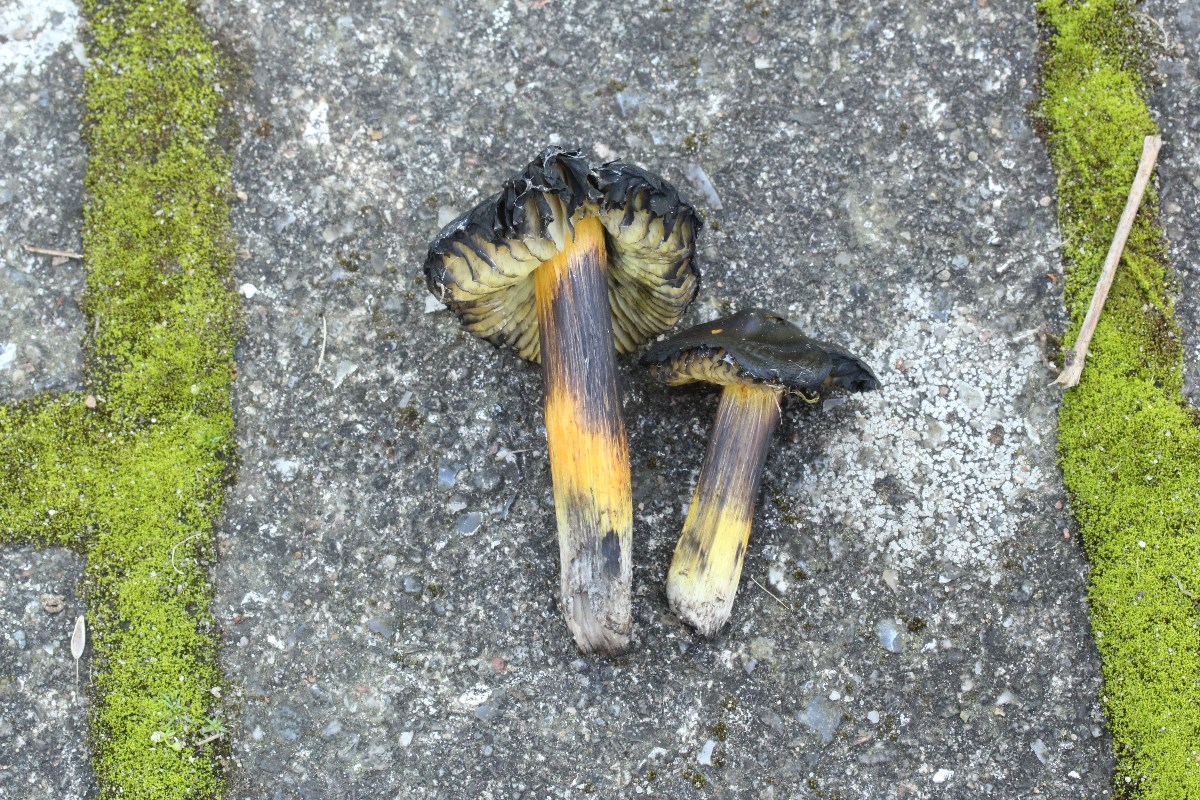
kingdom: Fungi
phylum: Basidiomycota
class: Agaricomycetes
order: Agaricales
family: Hygrophoraceae
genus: Hygrocybe
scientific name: Hygrocybe conica
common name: kegle-vokshat
